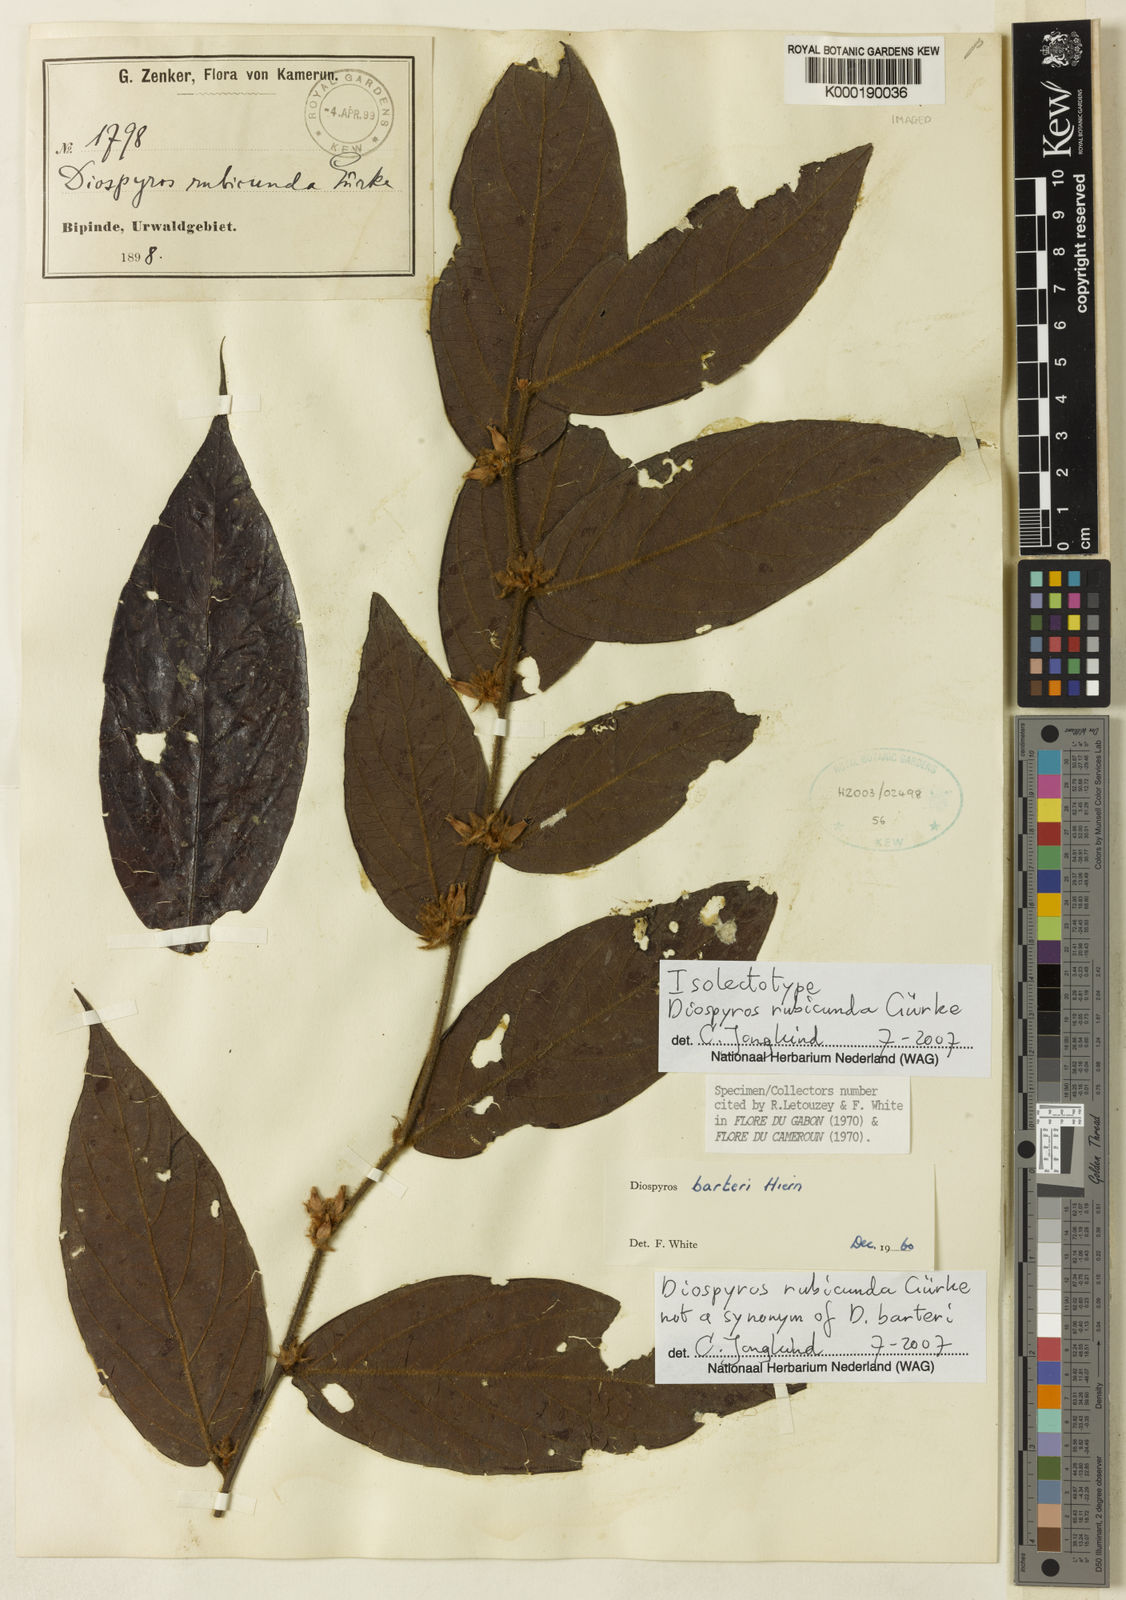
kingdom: Plantae
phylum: Tracheophyta
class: Magnoliopsida
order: Ericales
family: Ebenaceae
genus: Diospyros
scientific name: Diospyros barteri
